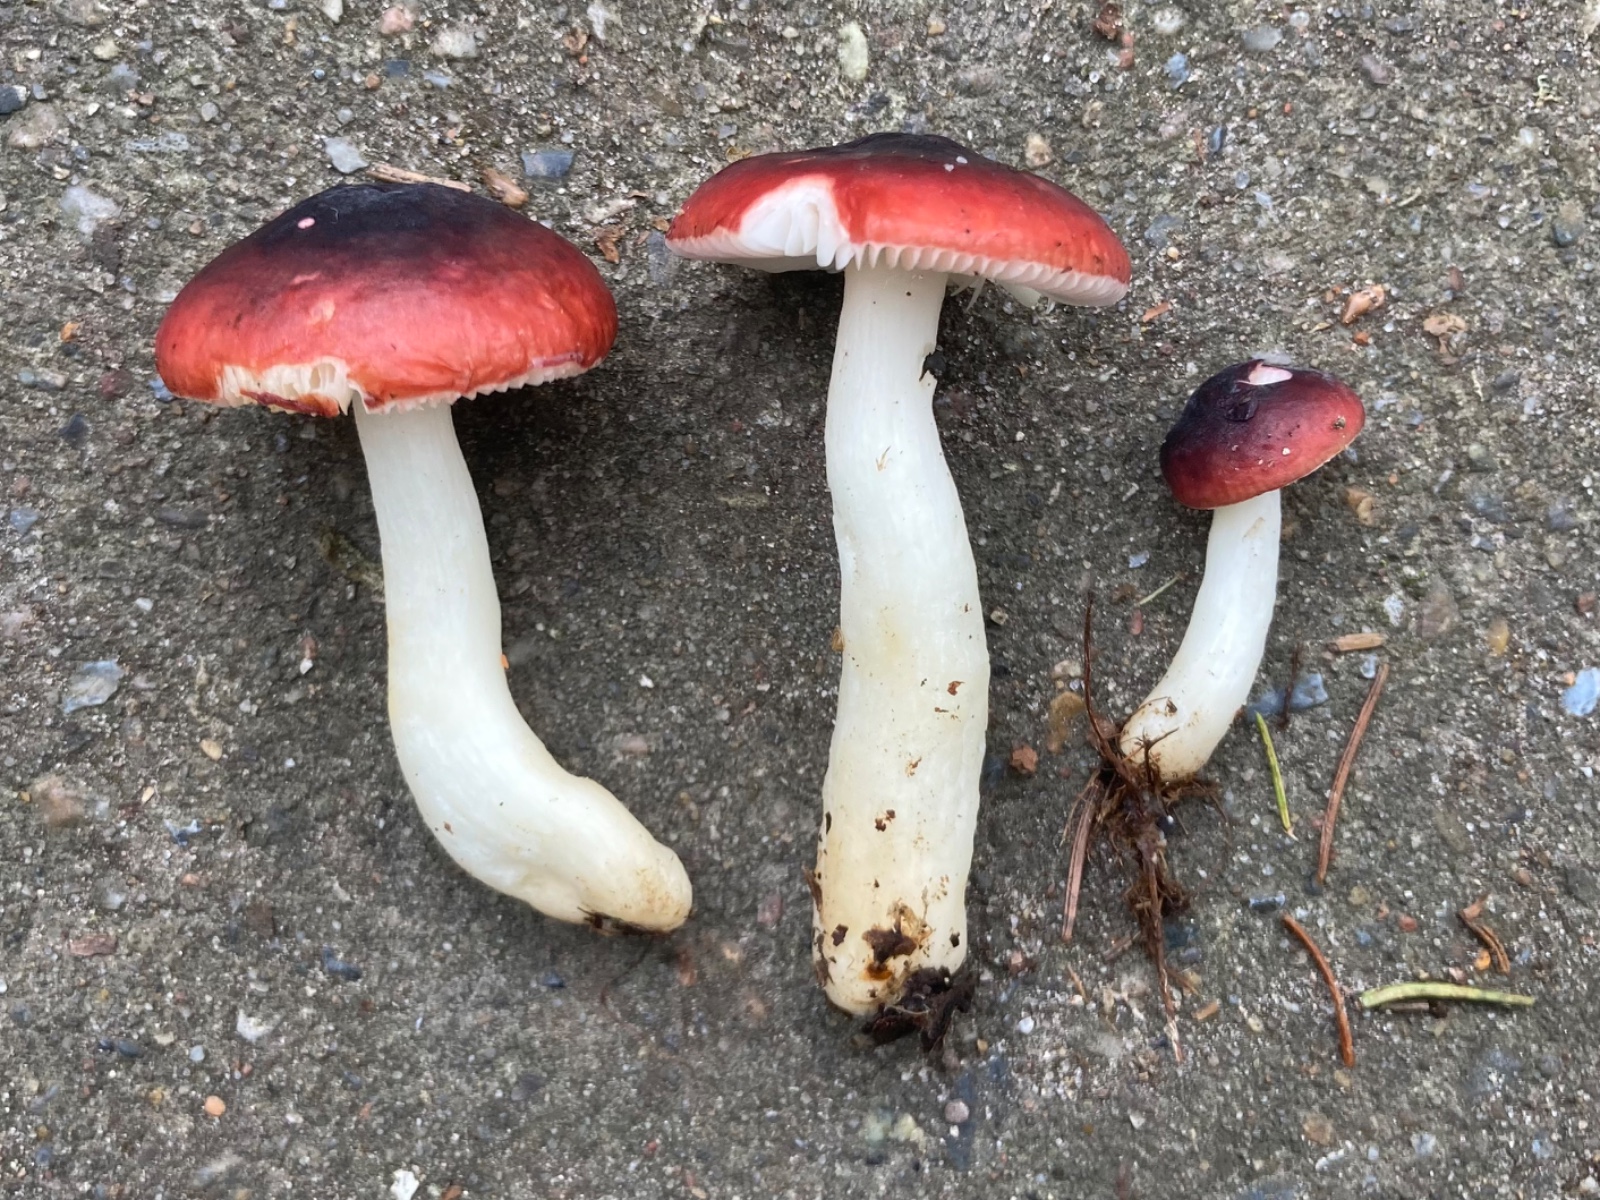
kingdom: Fungi
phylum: Basidiomycota
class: Agaricomycetes
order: Russulales
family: Russulaceae
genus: Russula
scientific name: Russula laccata
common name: klit-skørhat
